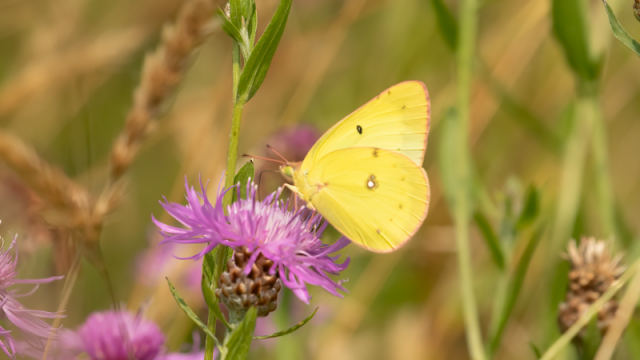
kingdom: Animalia
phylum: Arthropoda
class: Insecta
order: Lepidoptera
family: Pieridae
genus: Colias
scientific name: Colias philodice
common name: Clouded Sulphur
